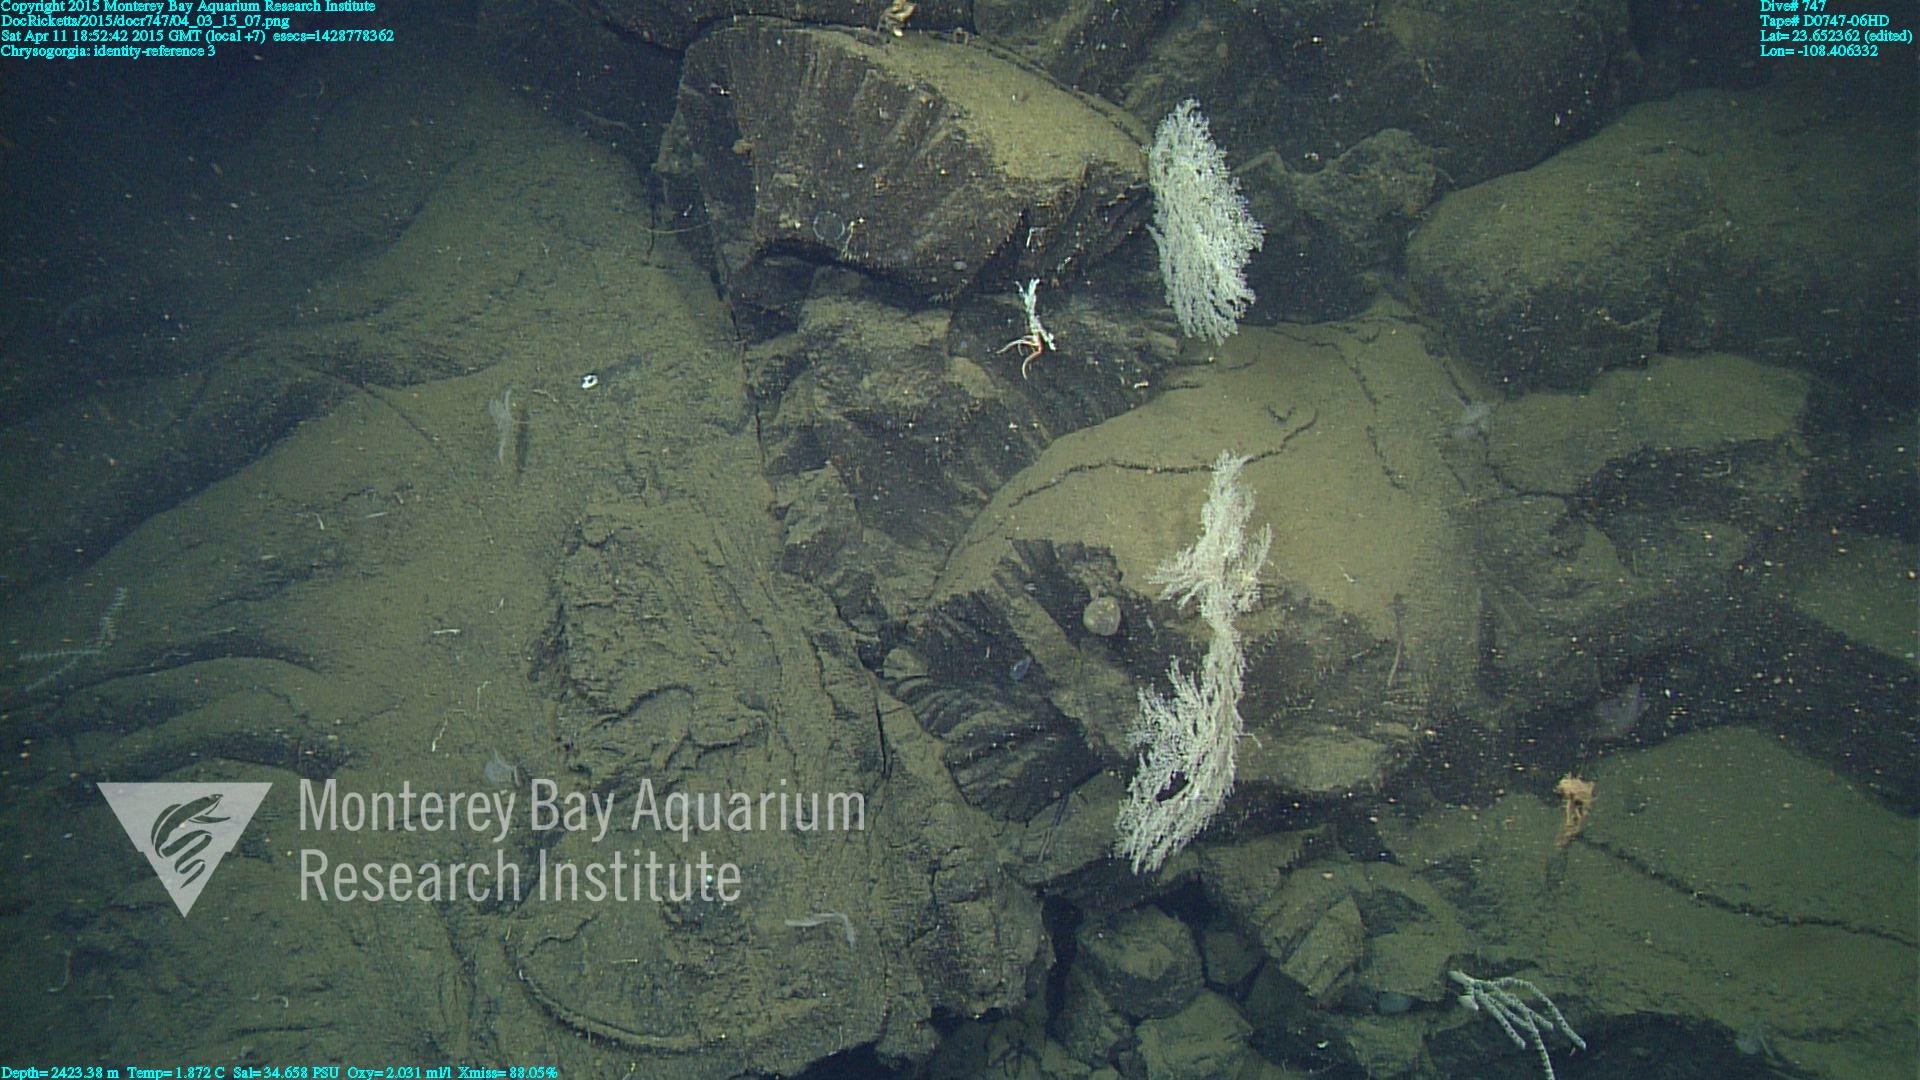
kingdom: Animalia
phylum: Cnidaria
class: Anthozoa
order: Scleralcyonacea
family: Chrysogorgiidae
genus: Chrysogorgia
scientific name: Chrysogorgia
